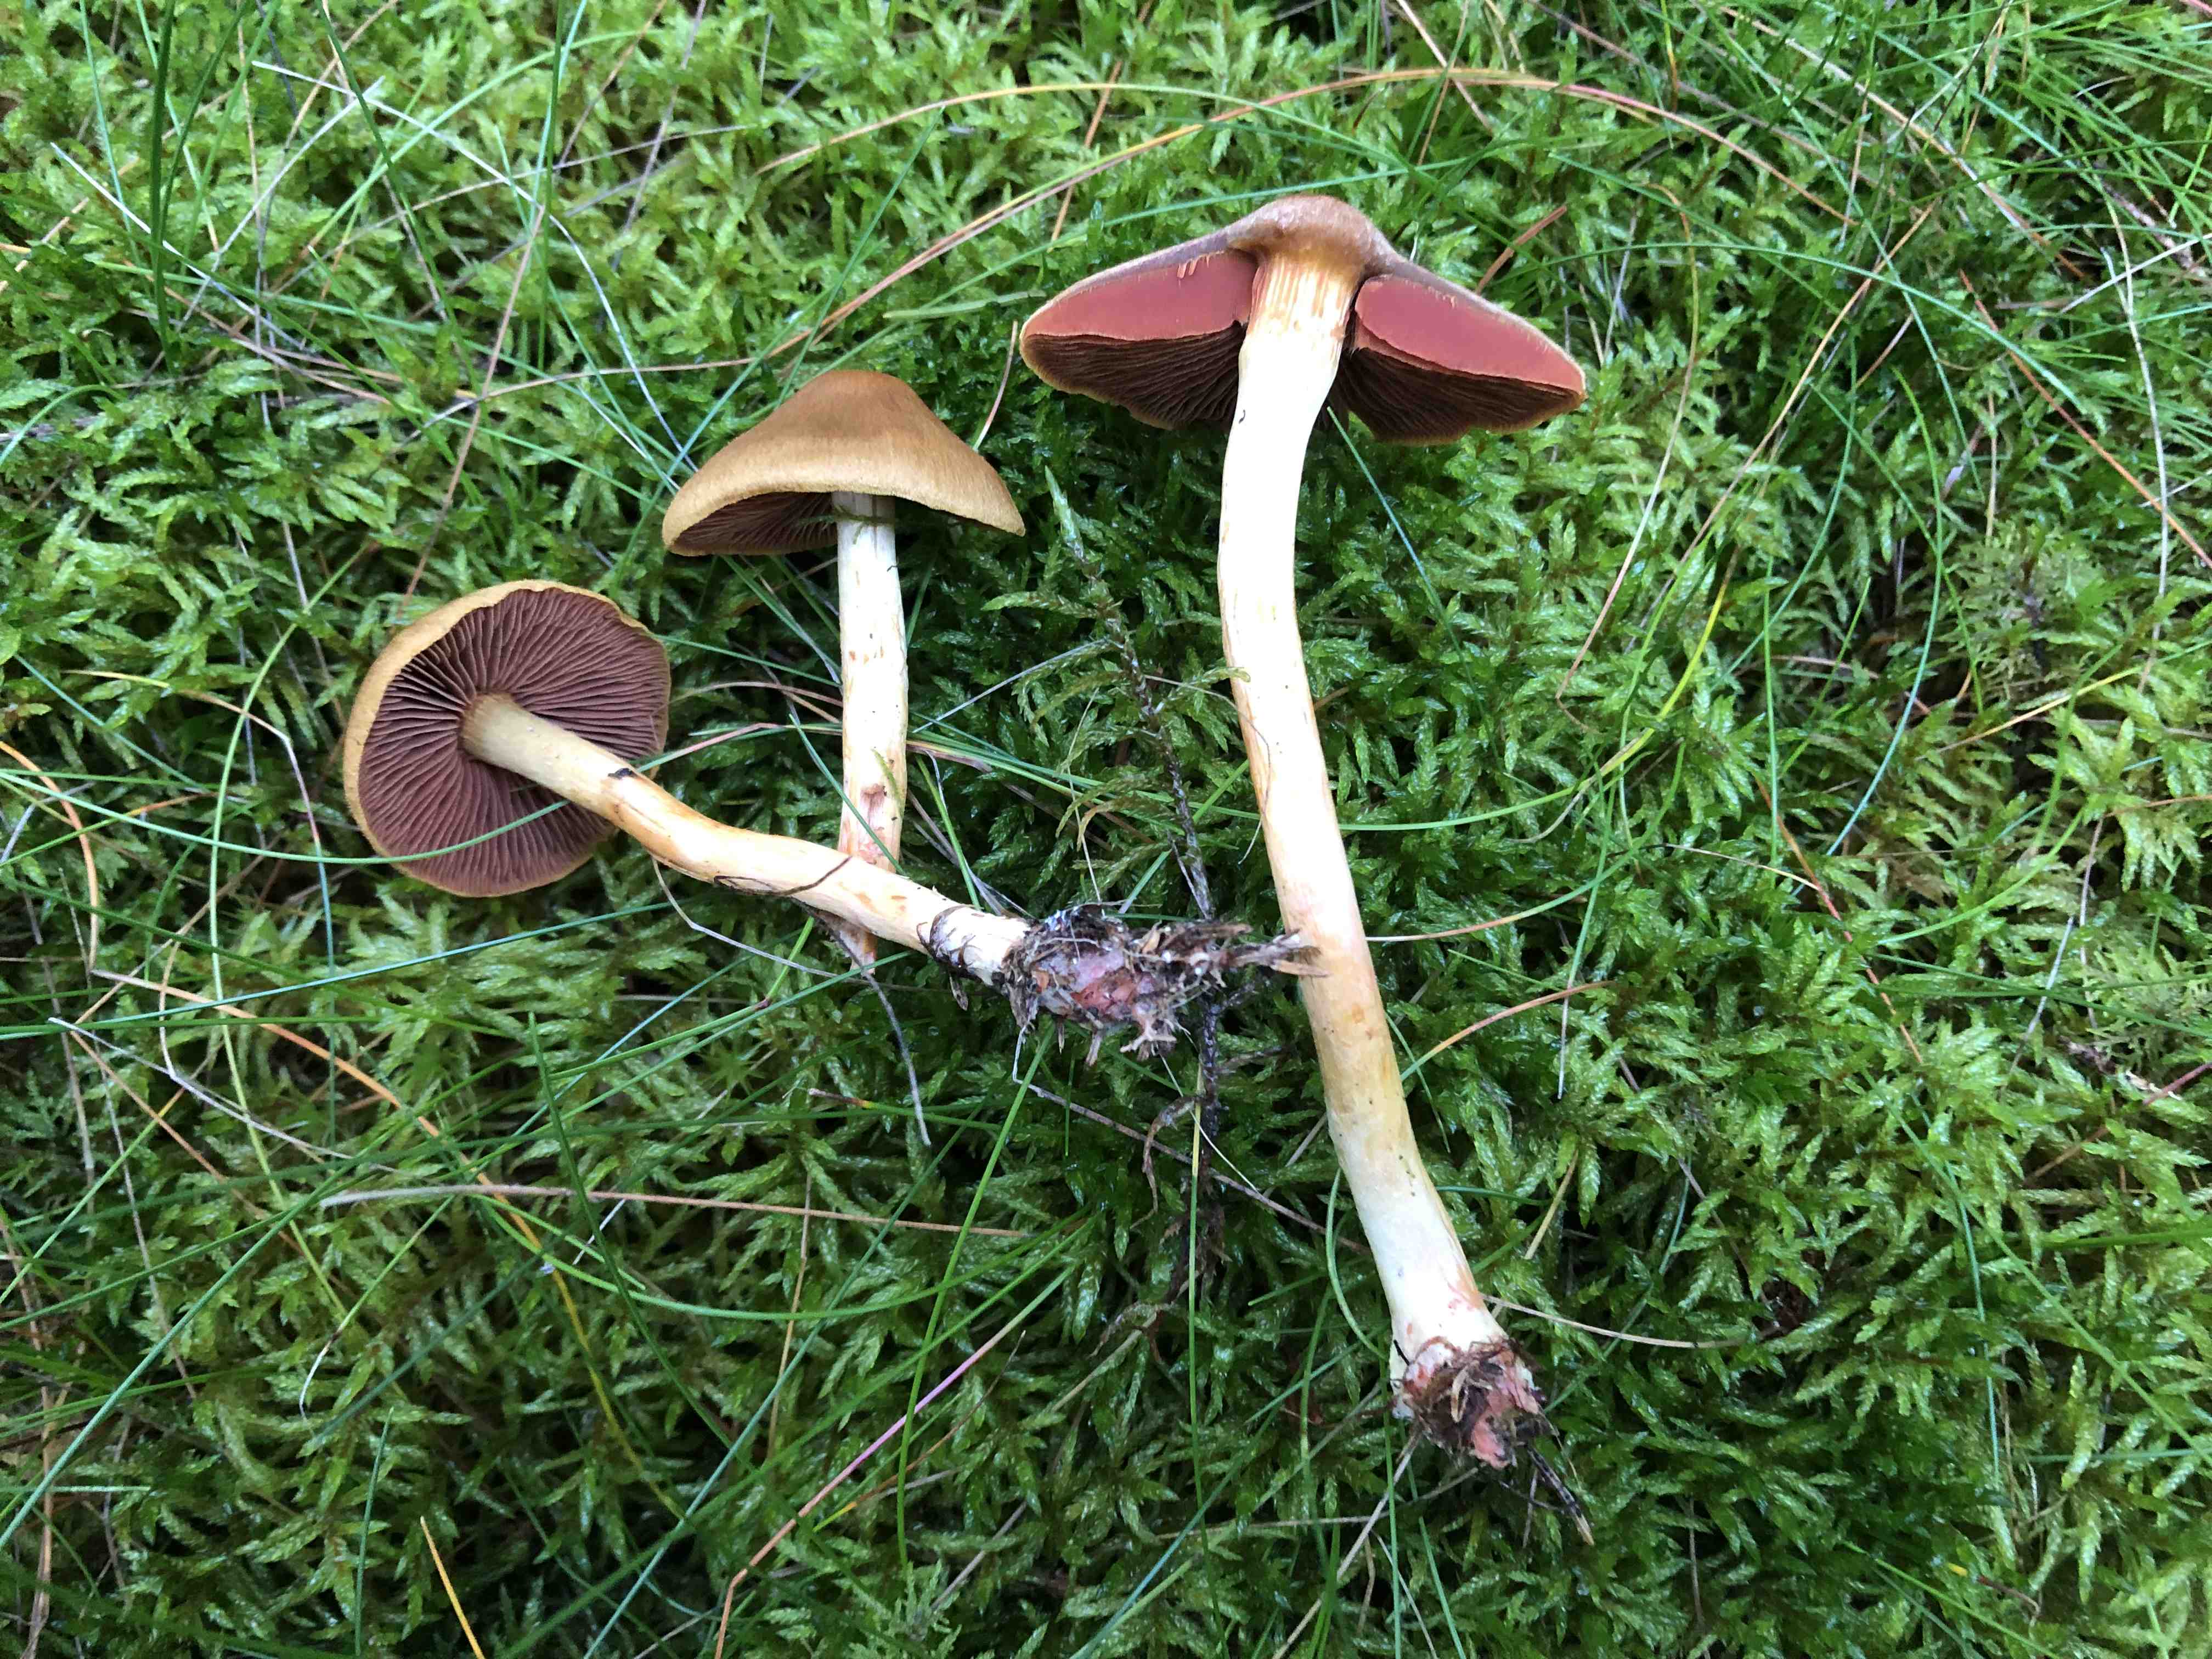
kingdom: Fungi
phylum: Basidiomycota
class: Agaricomycetes
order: Agaricales
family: Cortinariaceae
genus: Cortinarius
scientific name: Cortinarius
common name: cinnoberbladet slørhat
